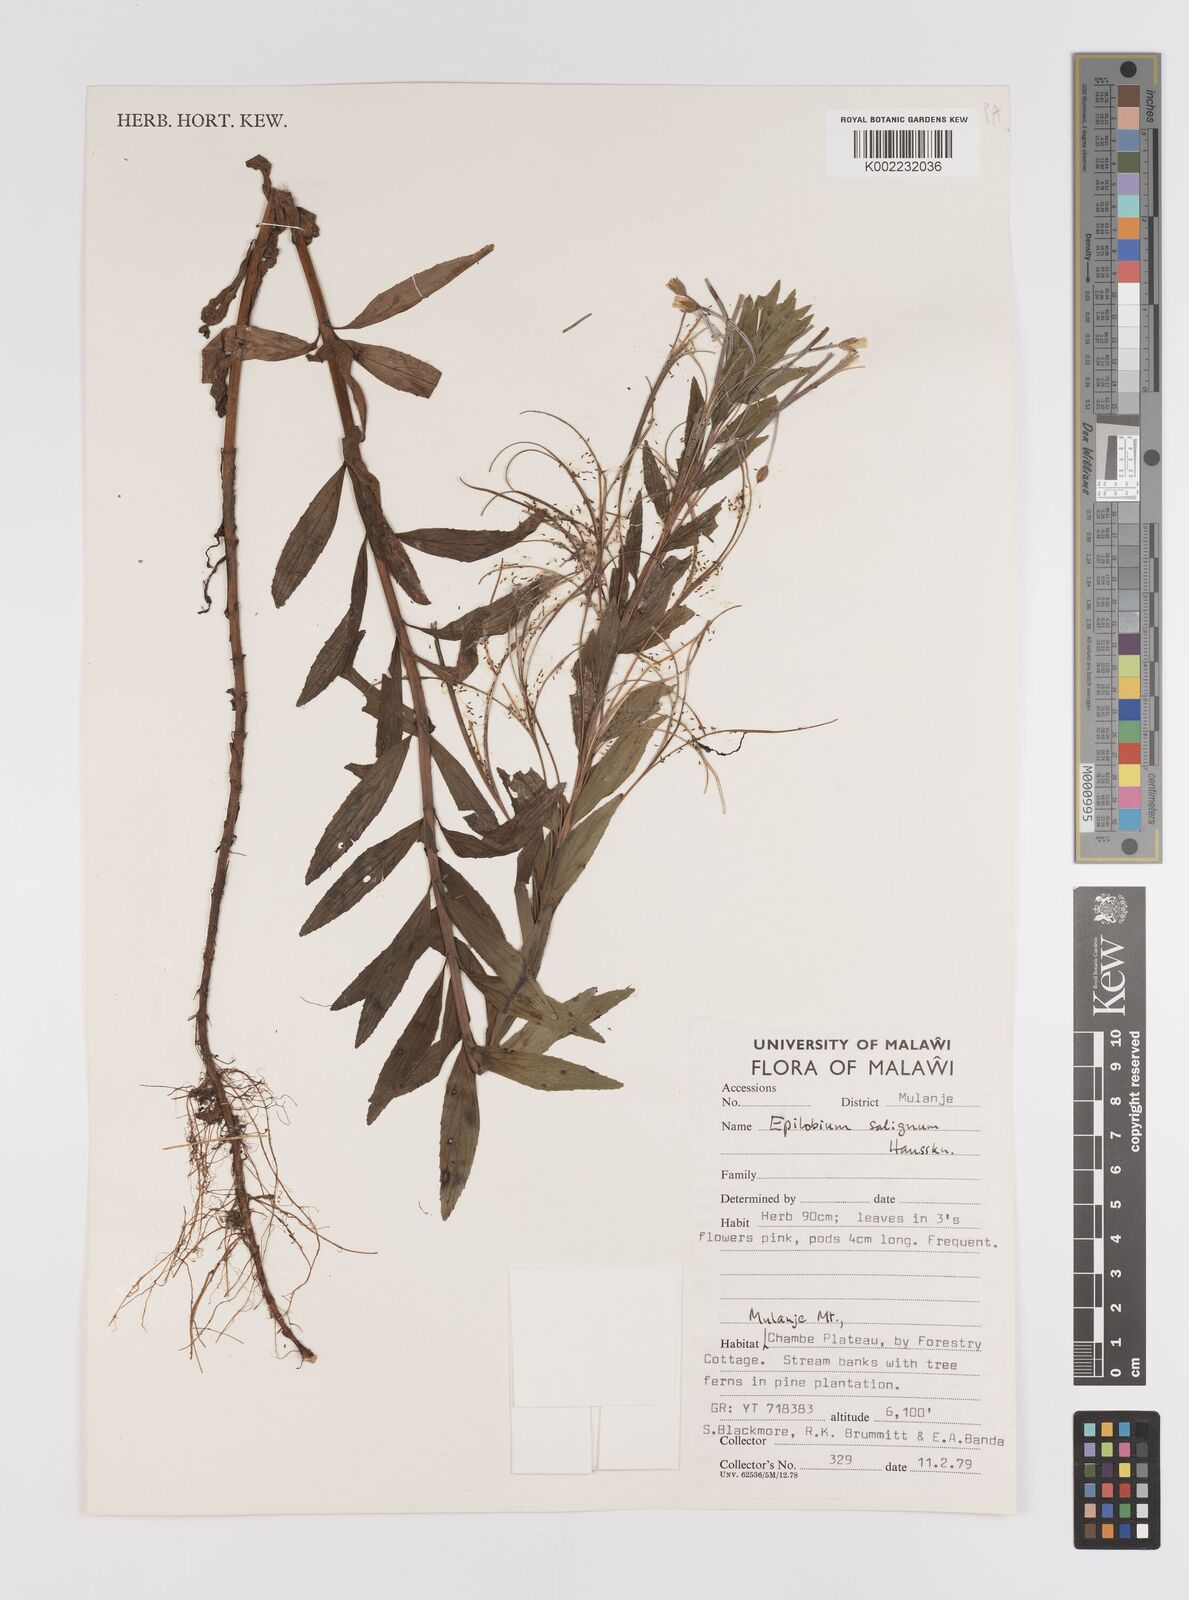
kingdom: Plantae
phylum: Tracheophyta
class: Magnoliopsida
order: Myrtales
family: Onagraceae
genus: Epilobium
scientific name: Epilobium salignum
